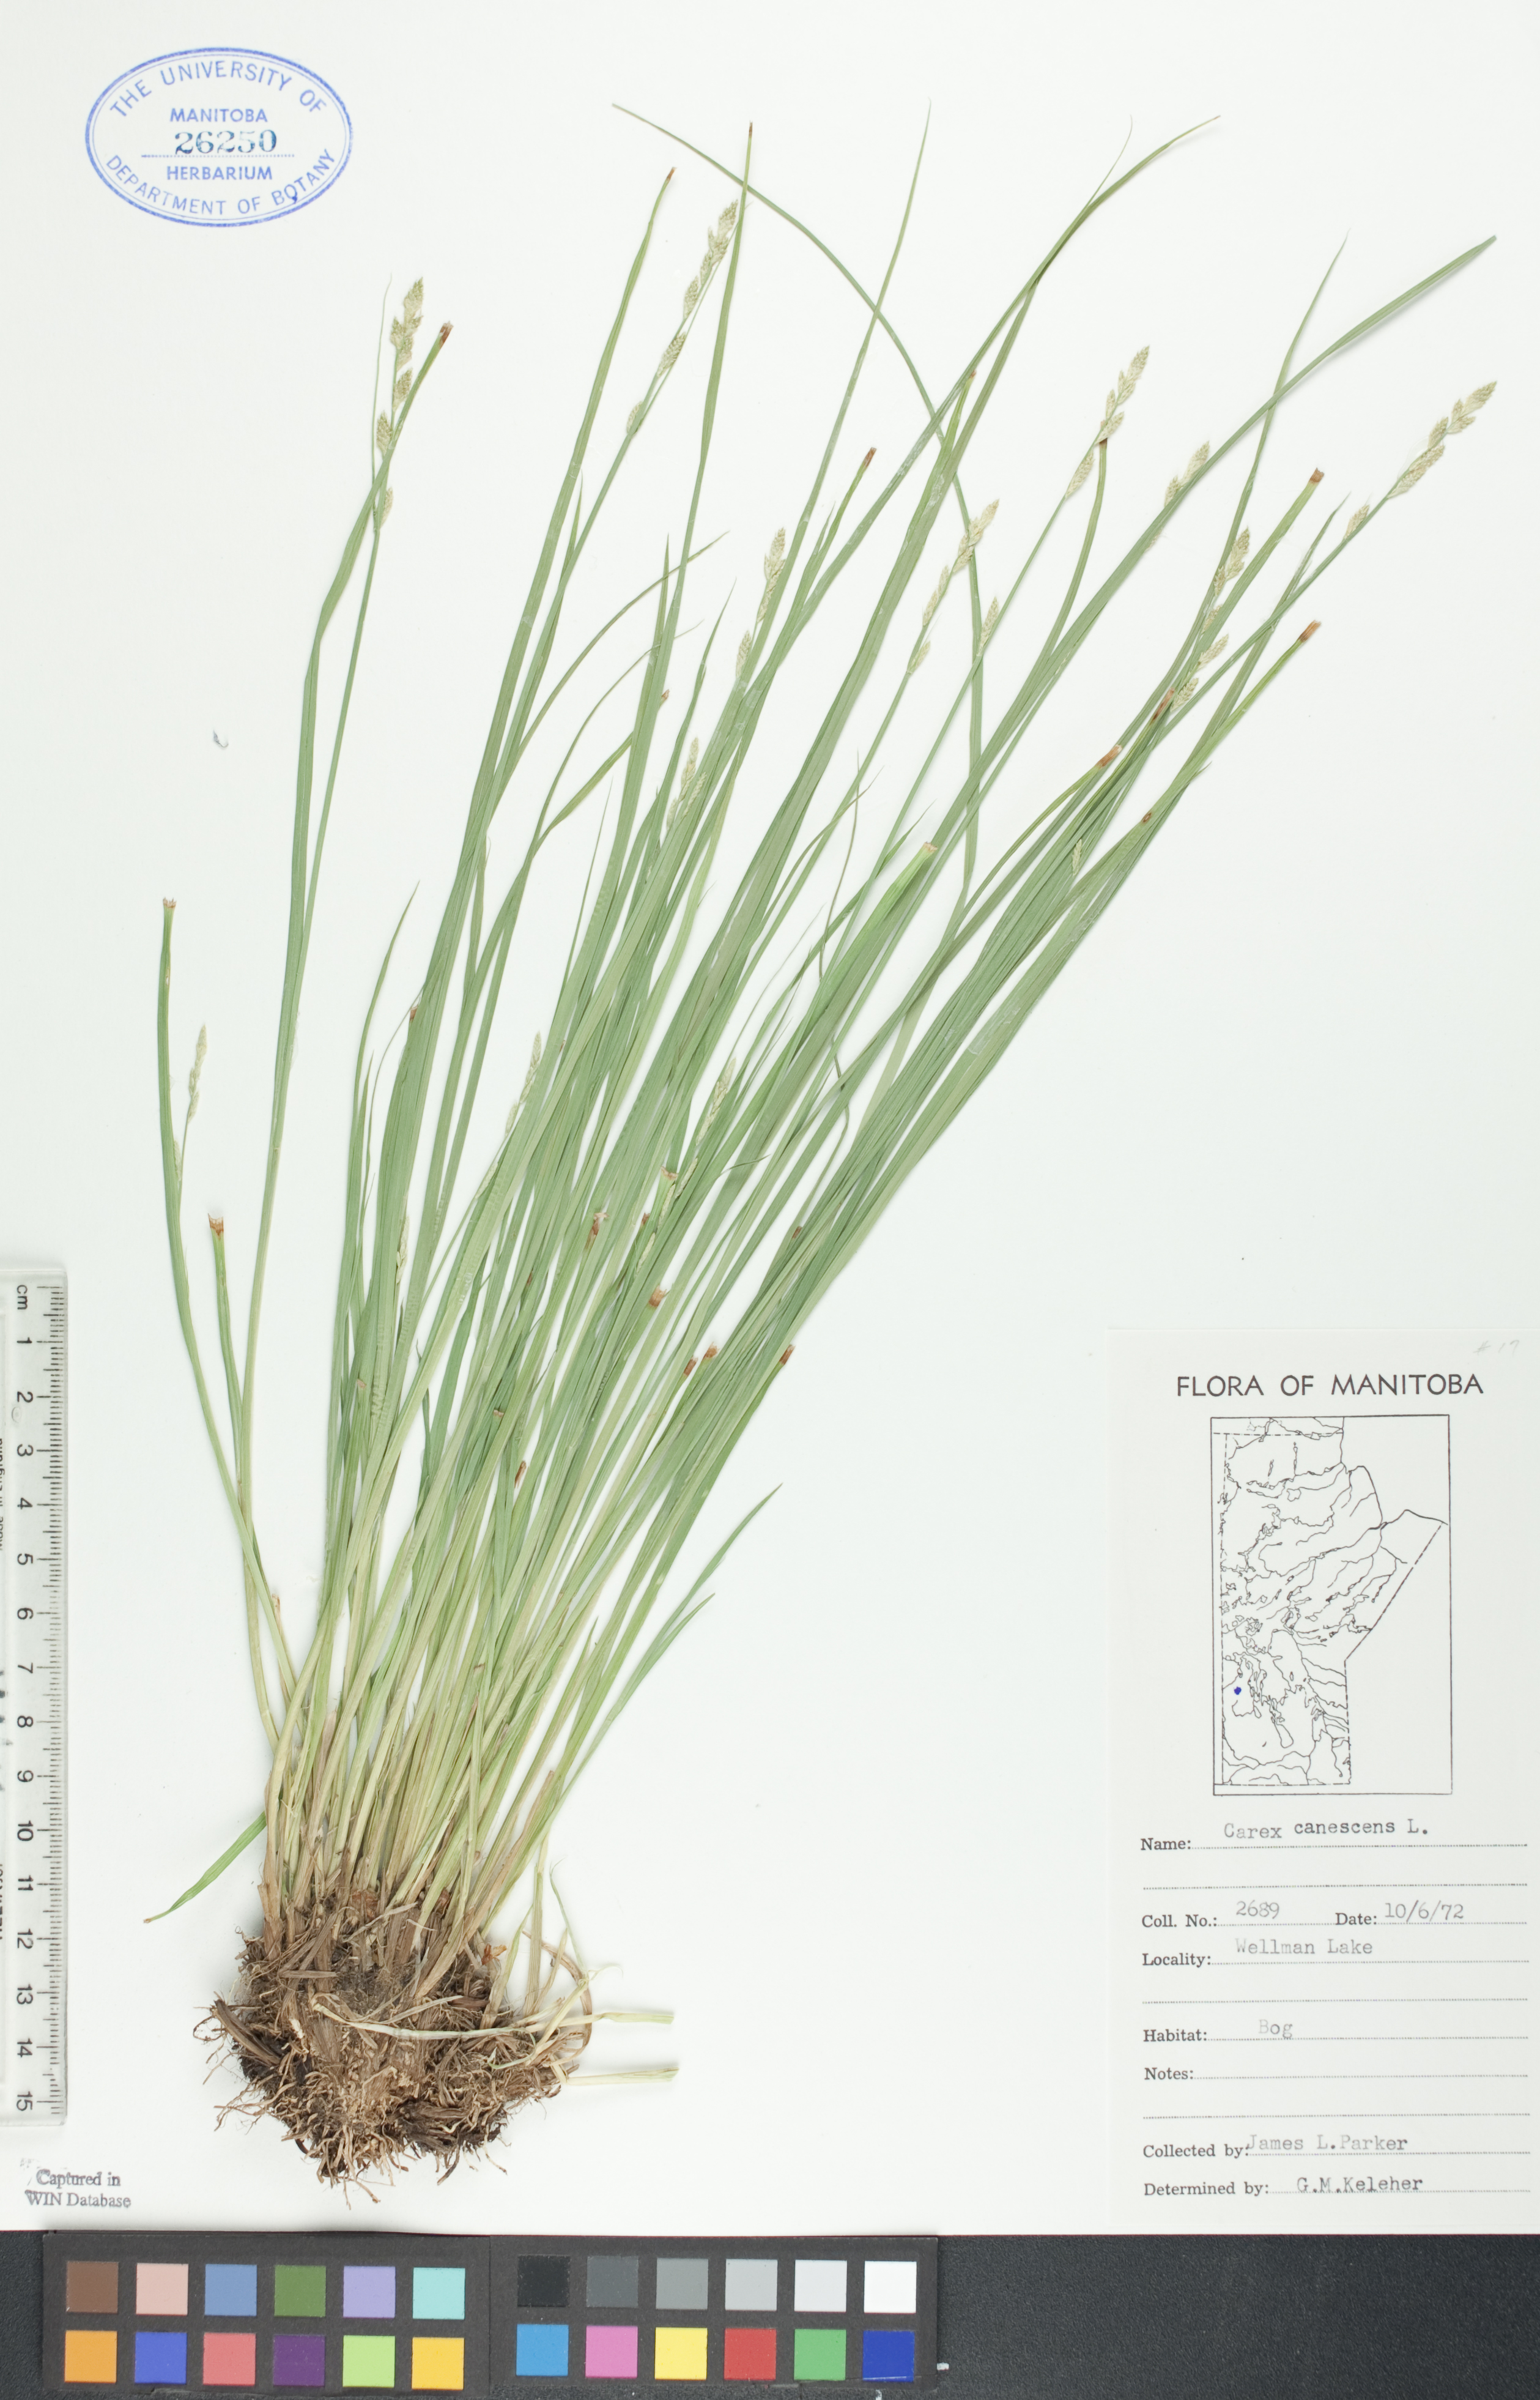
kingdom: Plantae
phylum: Tracheophyta
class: Liliopsida
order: Poales
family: Cyperaceae
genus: Carex
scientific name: Carex canescens
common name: White sedge
